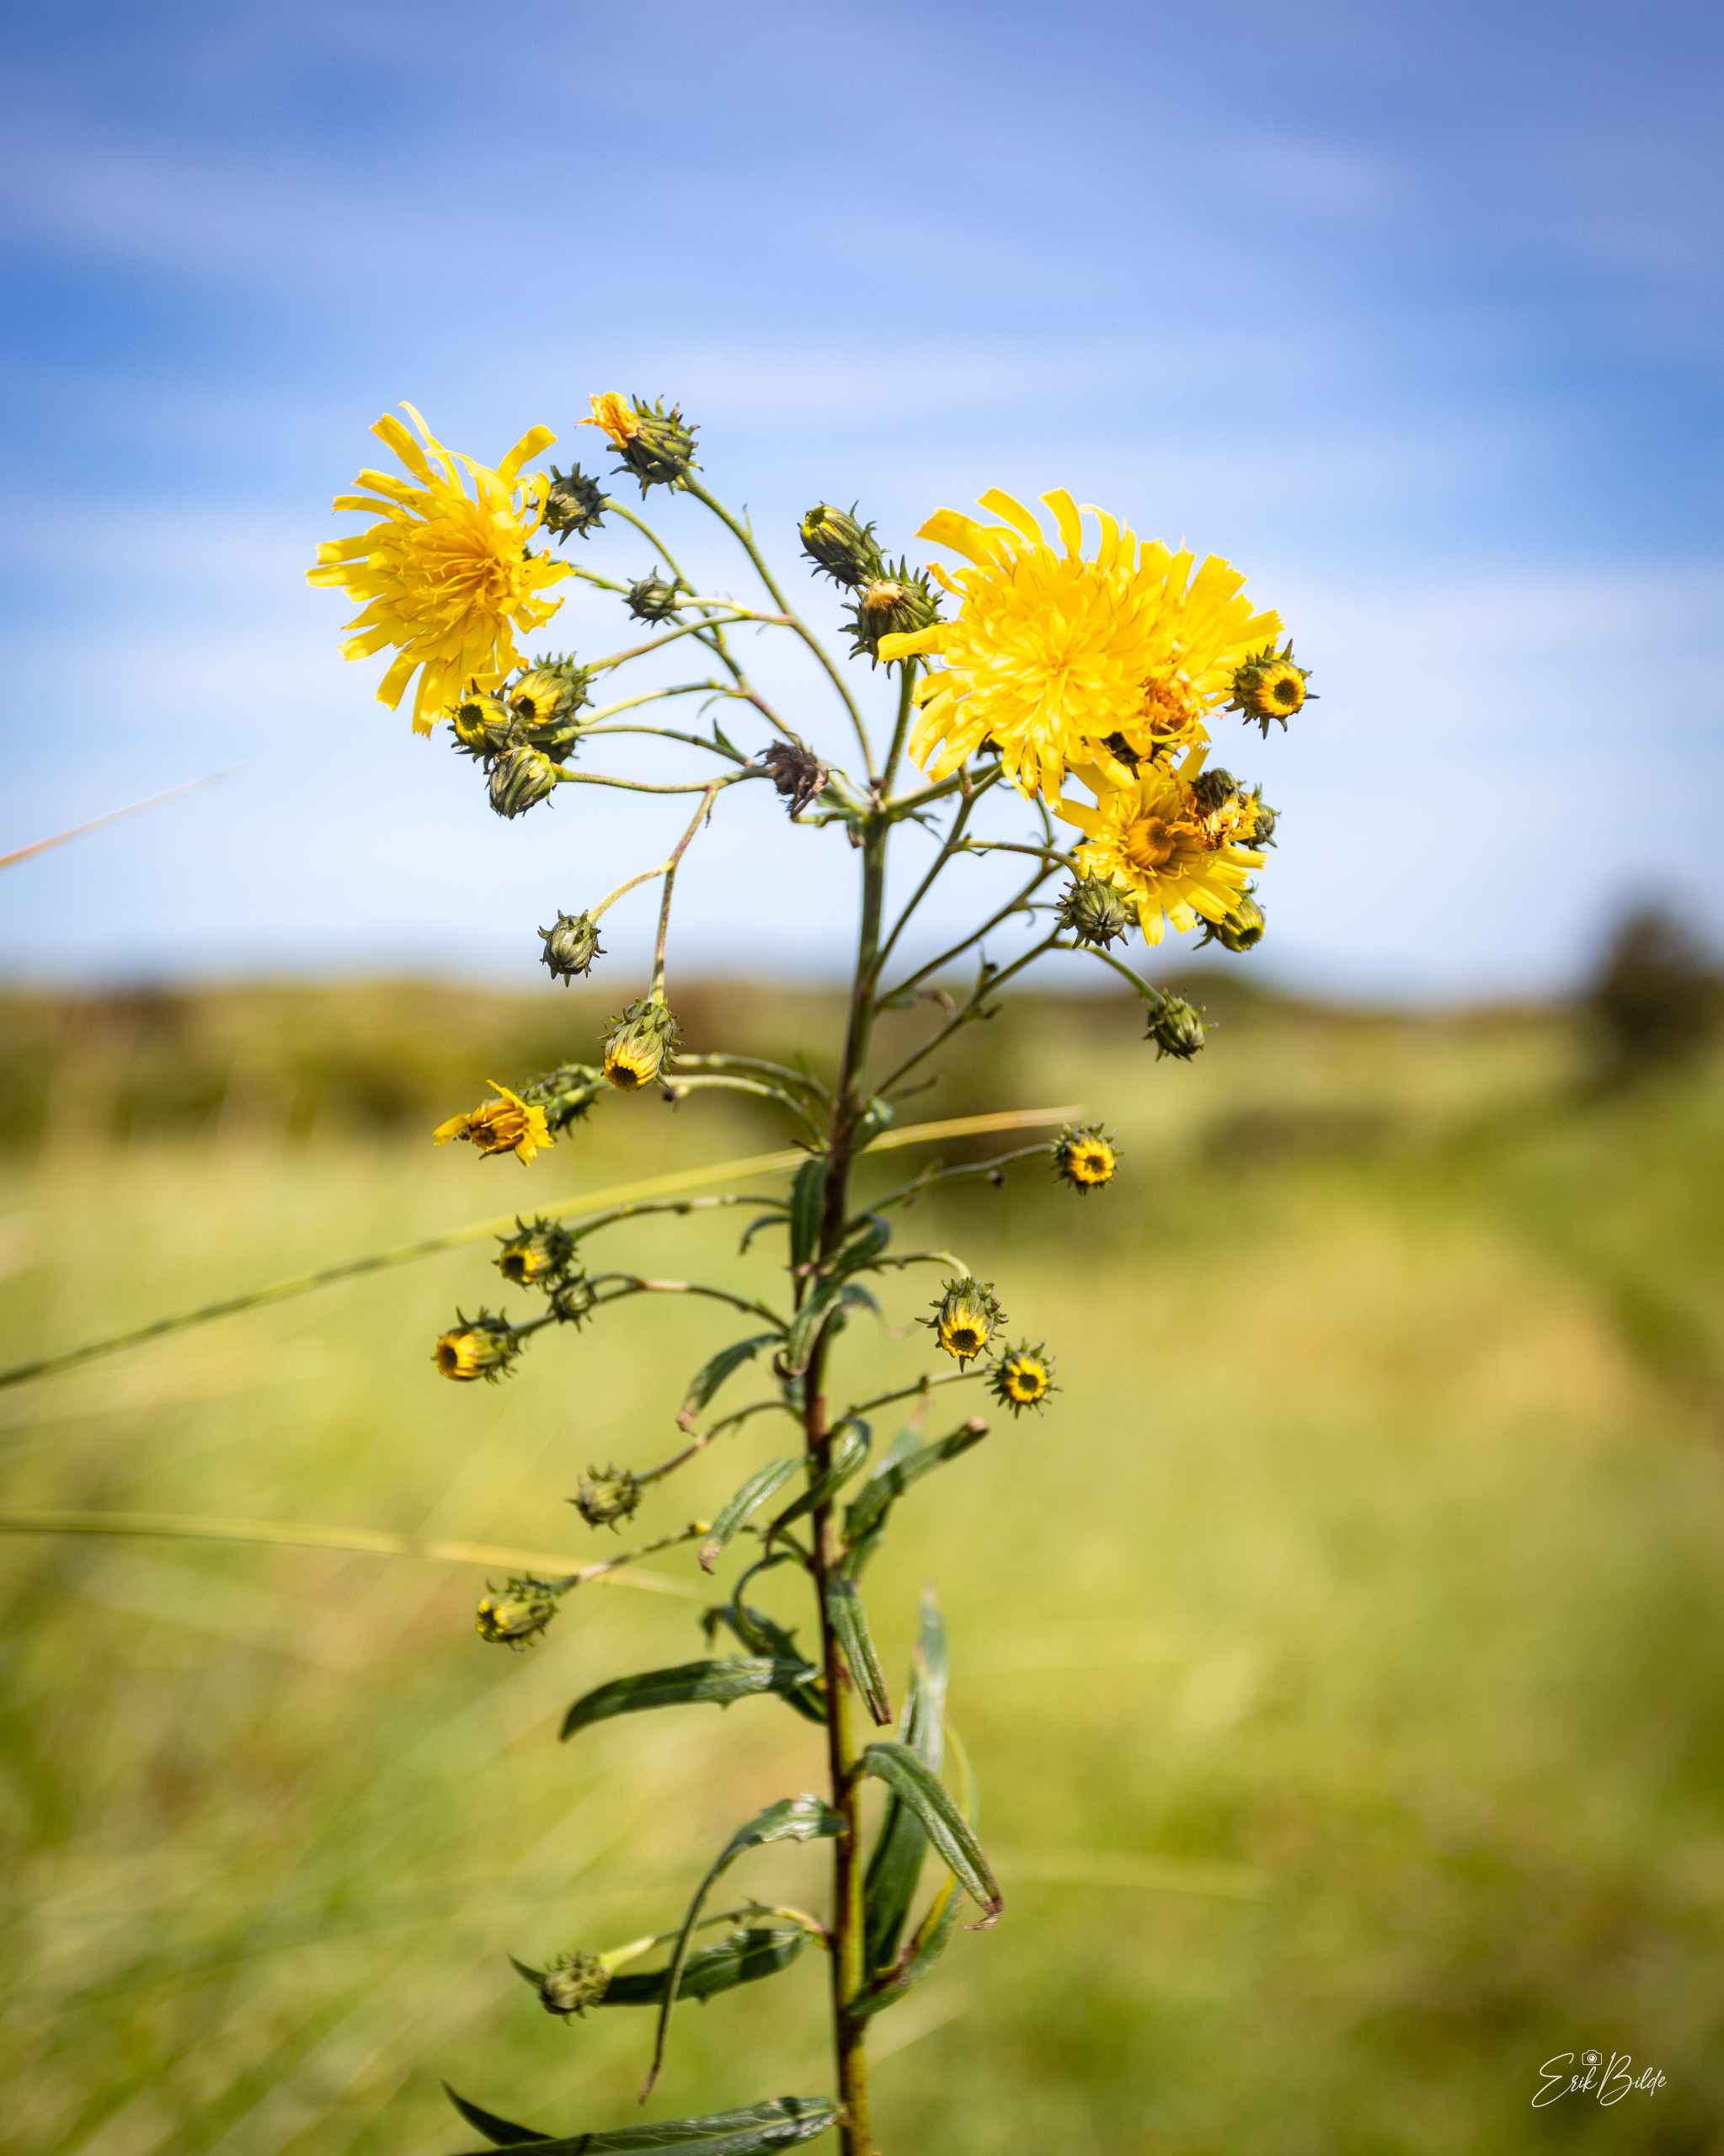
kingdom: Plantae
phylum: Tracheophyta
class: Magnoliopsida
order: Asterales
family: Asteraceae
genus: Hieracium
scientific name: Hieracium umbellatum
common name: Smalbladet høgeurt
